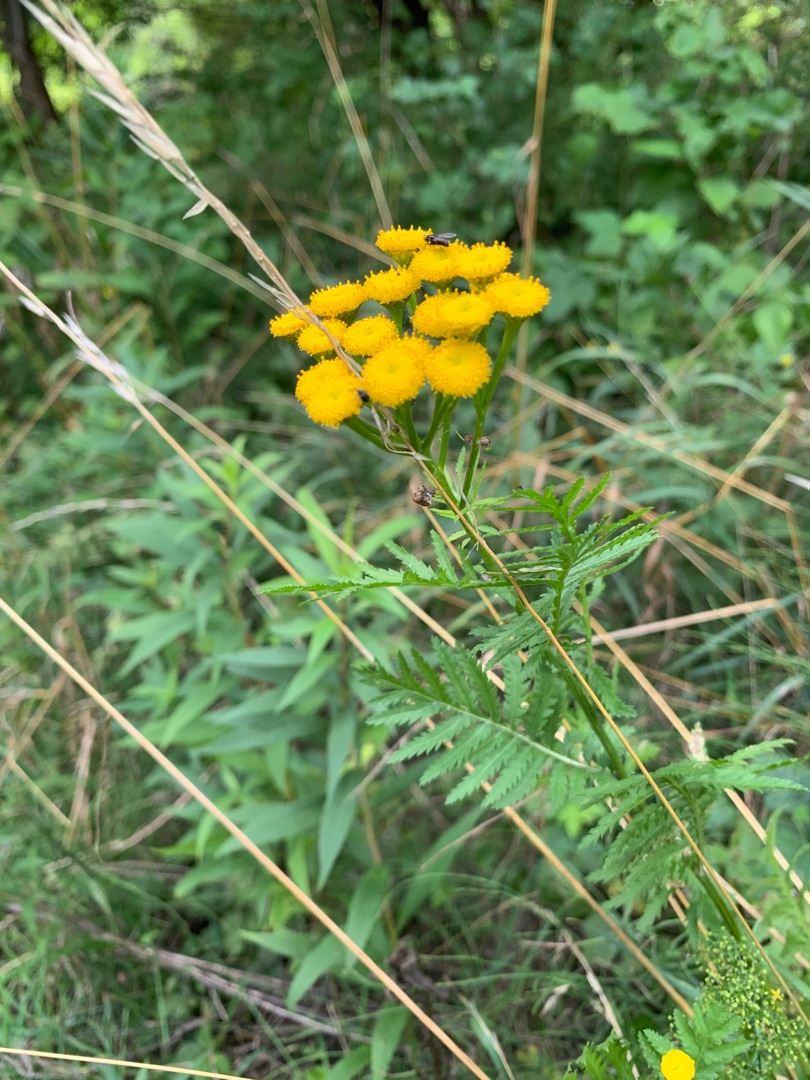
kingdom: Plantae
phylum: Tracheophyta
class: Magnoliopsida
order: Asterales
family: Asteraceae
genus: Tanacetum
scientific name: Tanacetum vulgare
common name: Rejnfan
